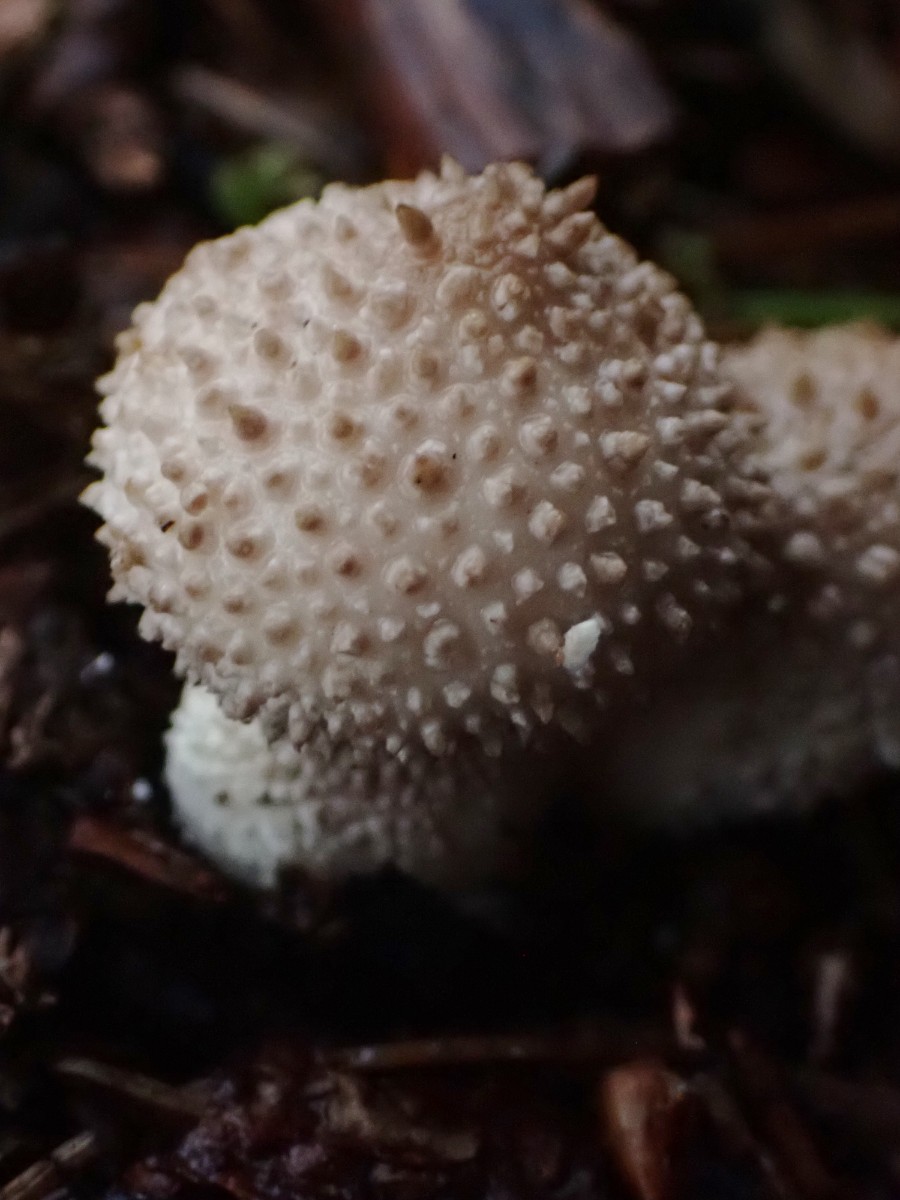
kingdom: Fungi
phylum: Basidiomycota
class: Agaricomycetes
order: Agaricales
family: Lycoperdaceae
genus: Lycoperdon
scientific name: Lycoperdon perlatum
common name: krystal-støvbold
